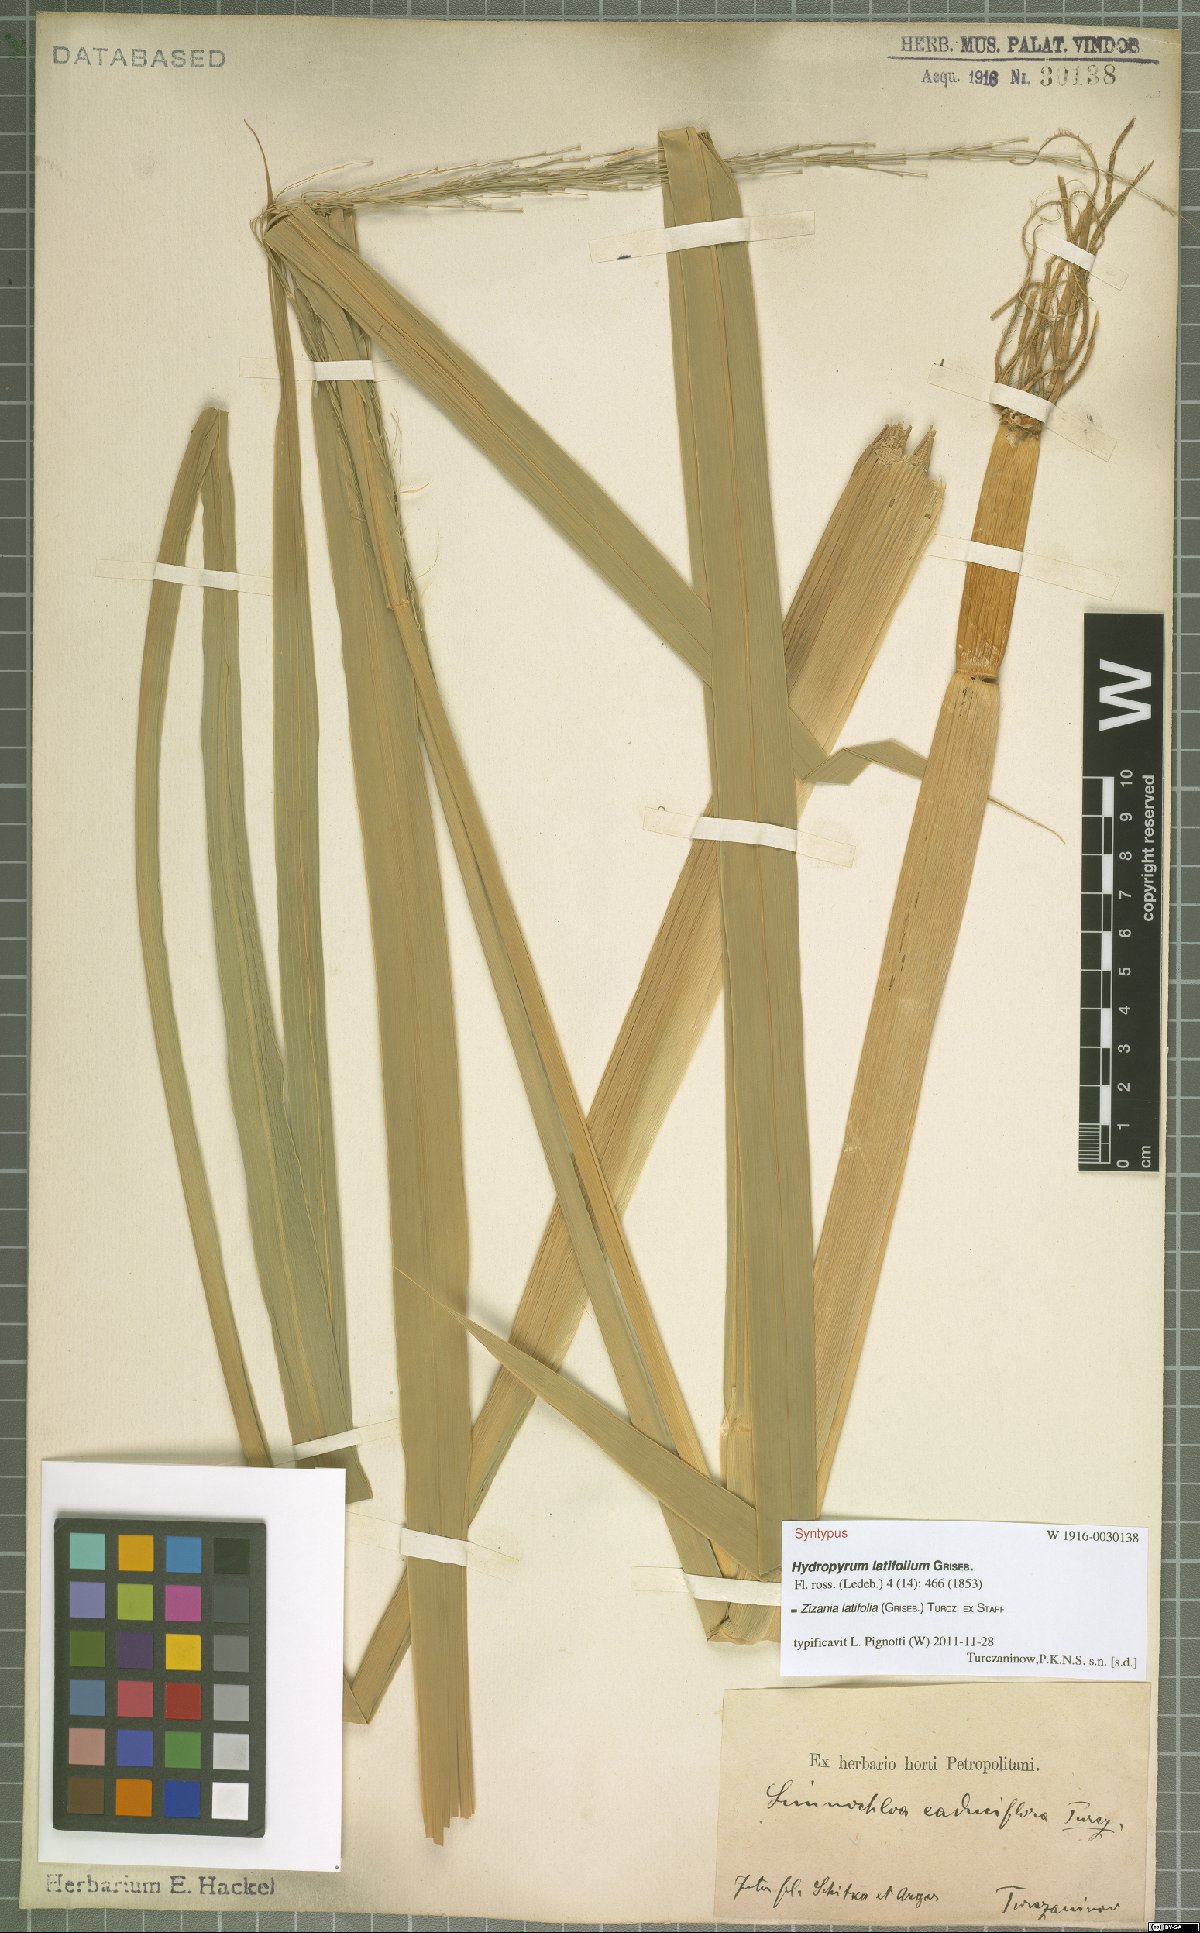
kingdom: Plantae
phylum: Tracheophyta
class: Liliopsida
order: Poales
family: Poaceae
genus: Zizania
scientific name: Zizania latifolia
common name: Manchurian wildrice
